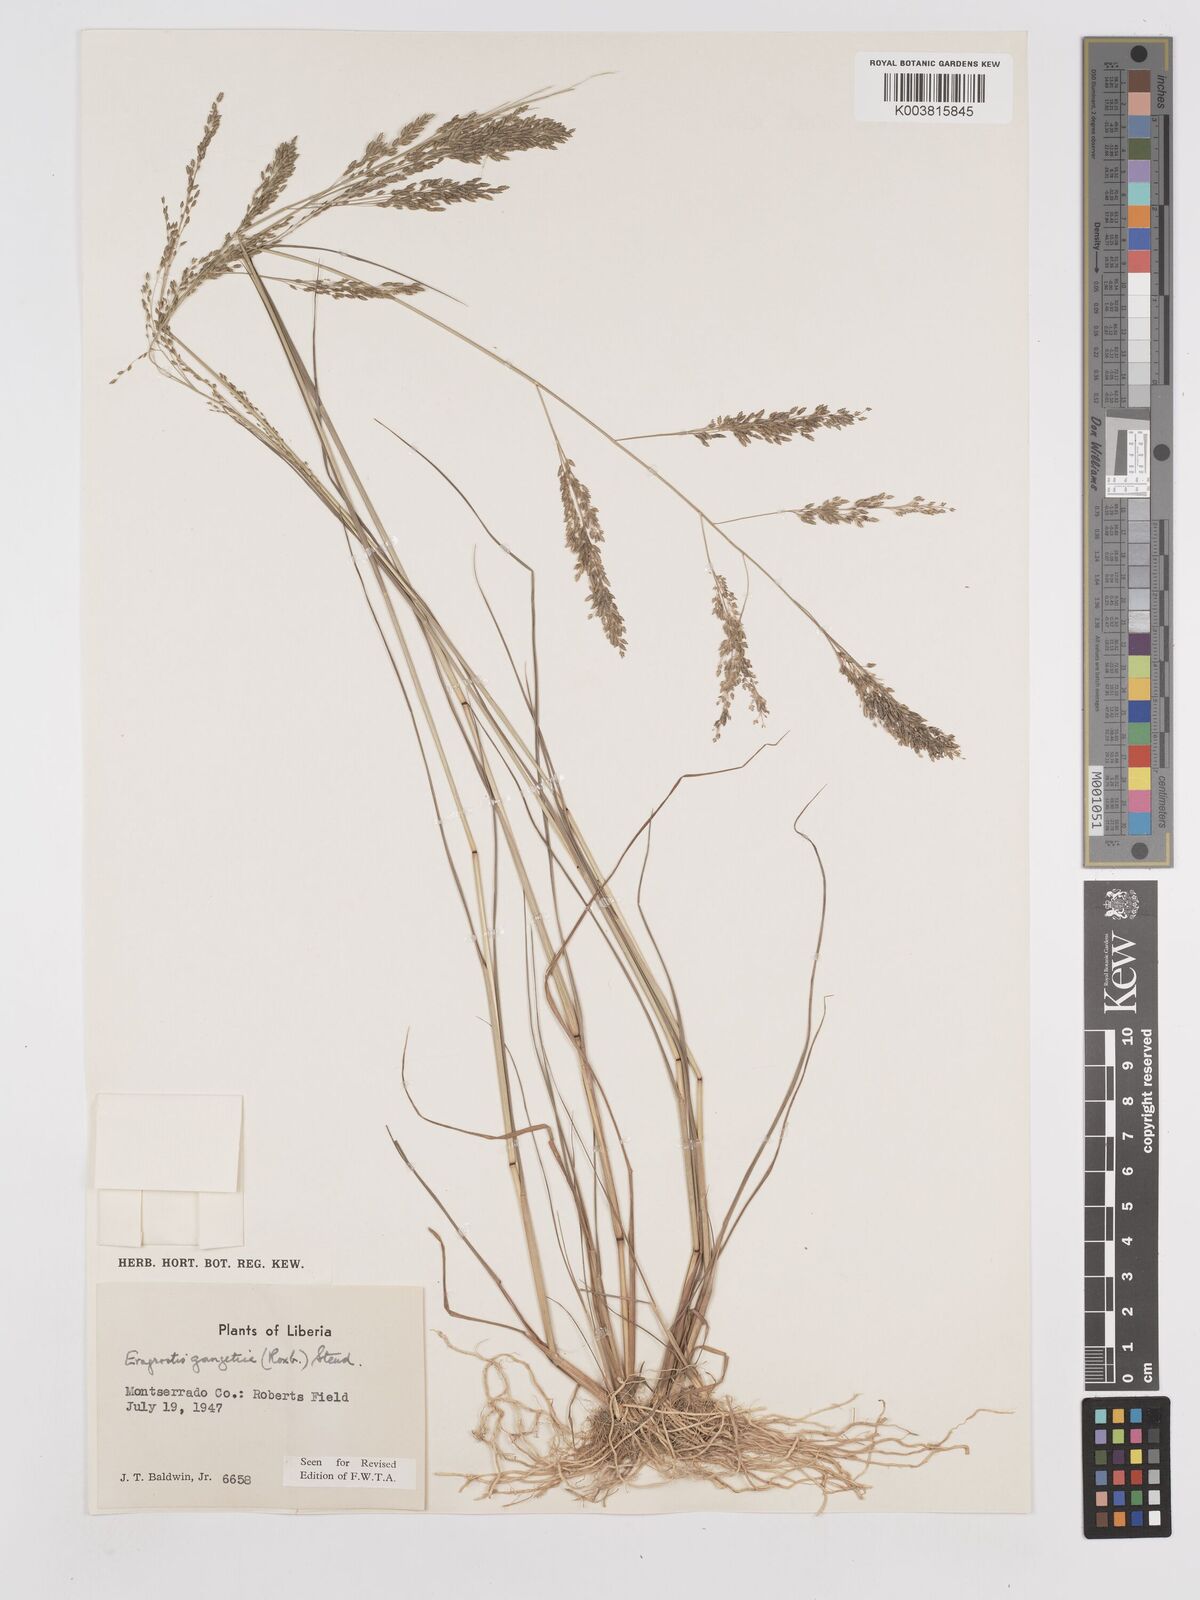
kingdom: Plantae
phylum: Tracheophyta
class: Liliopsida
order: Poales
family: Poaceae
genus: Eragrostis
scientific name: Eragrostis gangetica
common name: Slimflower lovegrass
